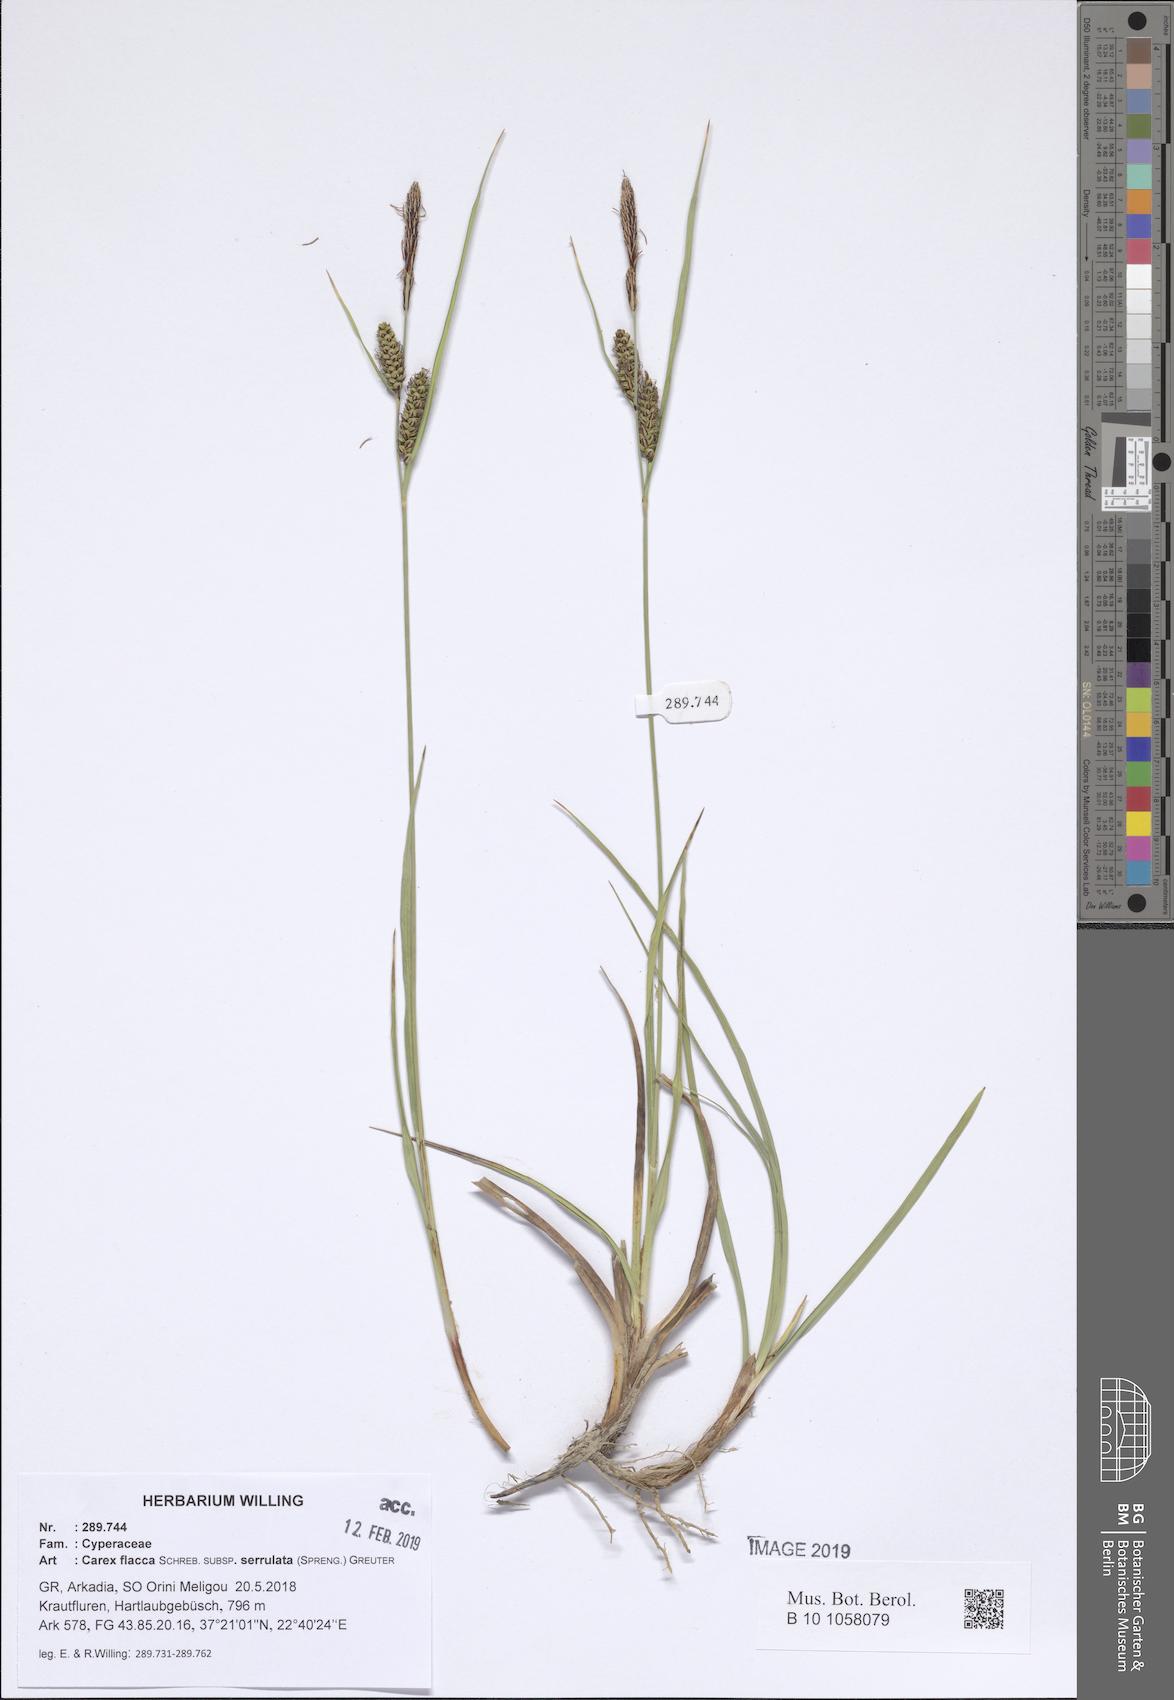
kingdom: Plantae
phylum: Tracheophyta
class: Liliopsida
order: Poales
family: Cyperaceae
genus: Carex
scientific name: Carex flacca
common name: Glaucous sedge
